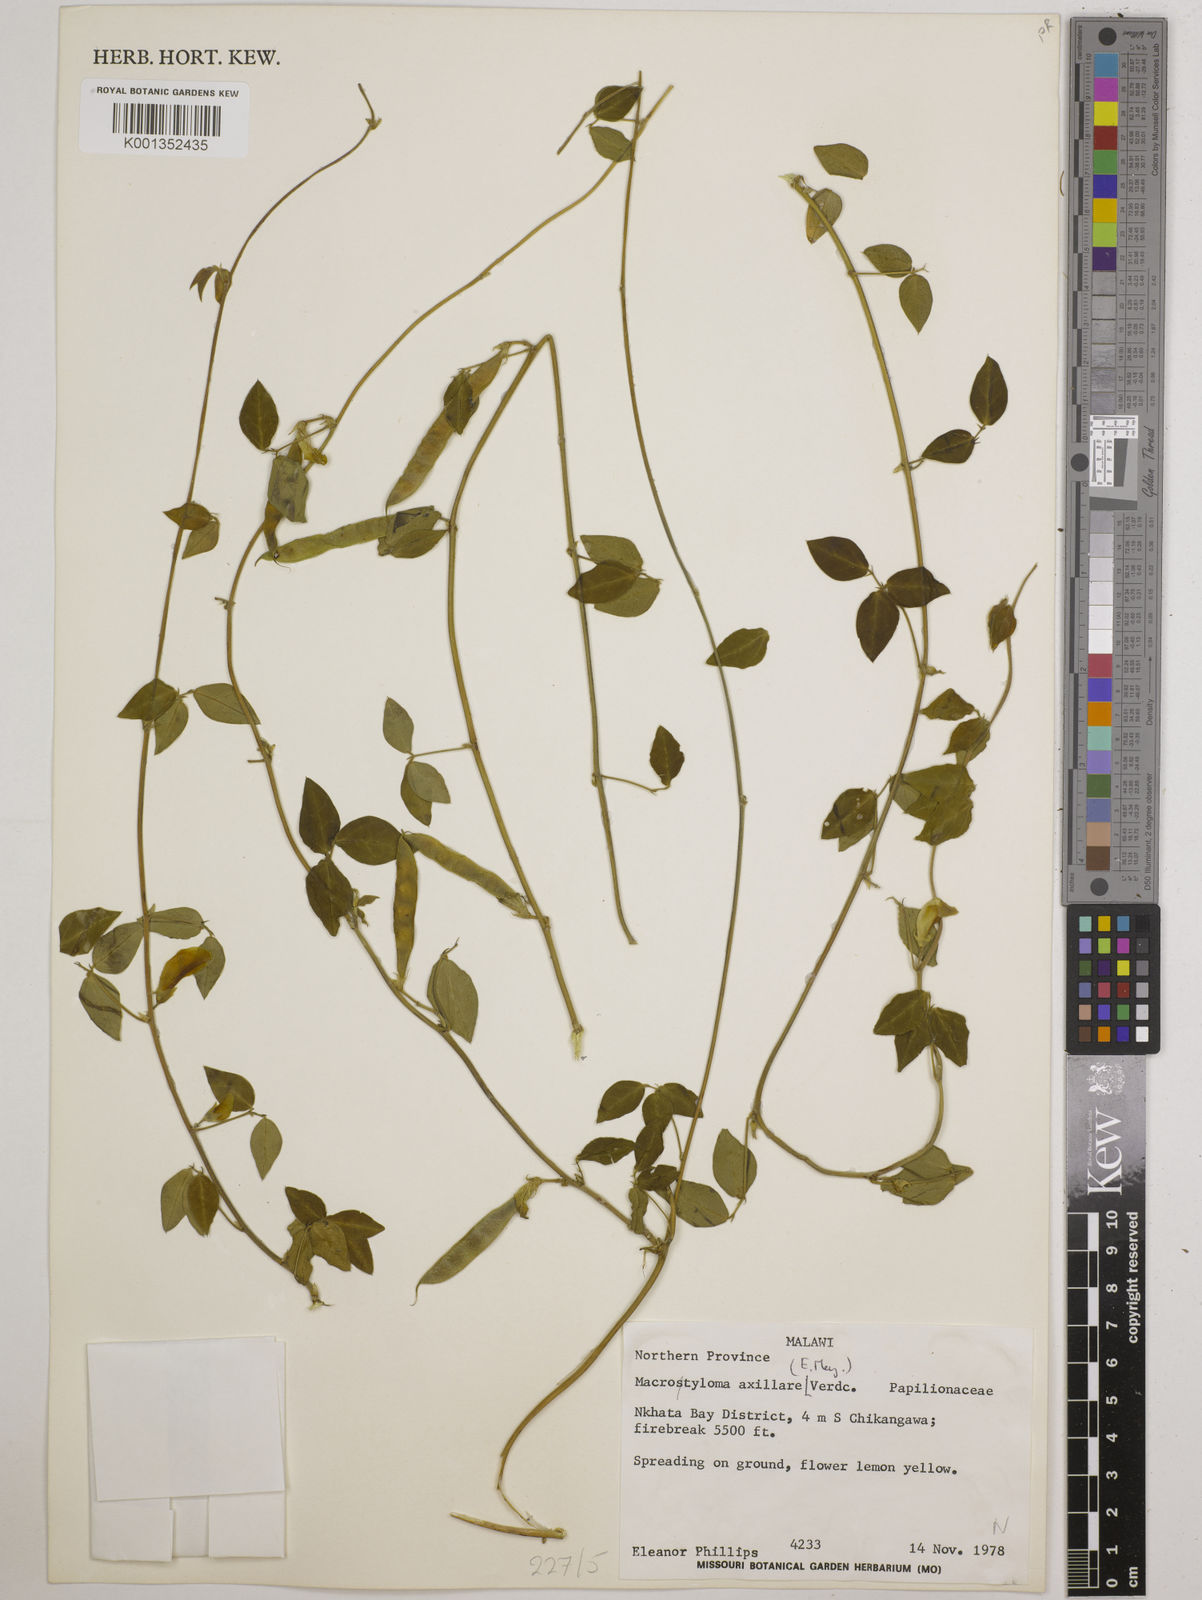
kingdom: Plantae
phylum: Tracheophyta
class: Magnoliopsida
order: Fabales
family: Fabaceae
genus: Macrotyloma
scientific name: Macrotyloma axillare
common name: Perennial horsegram
